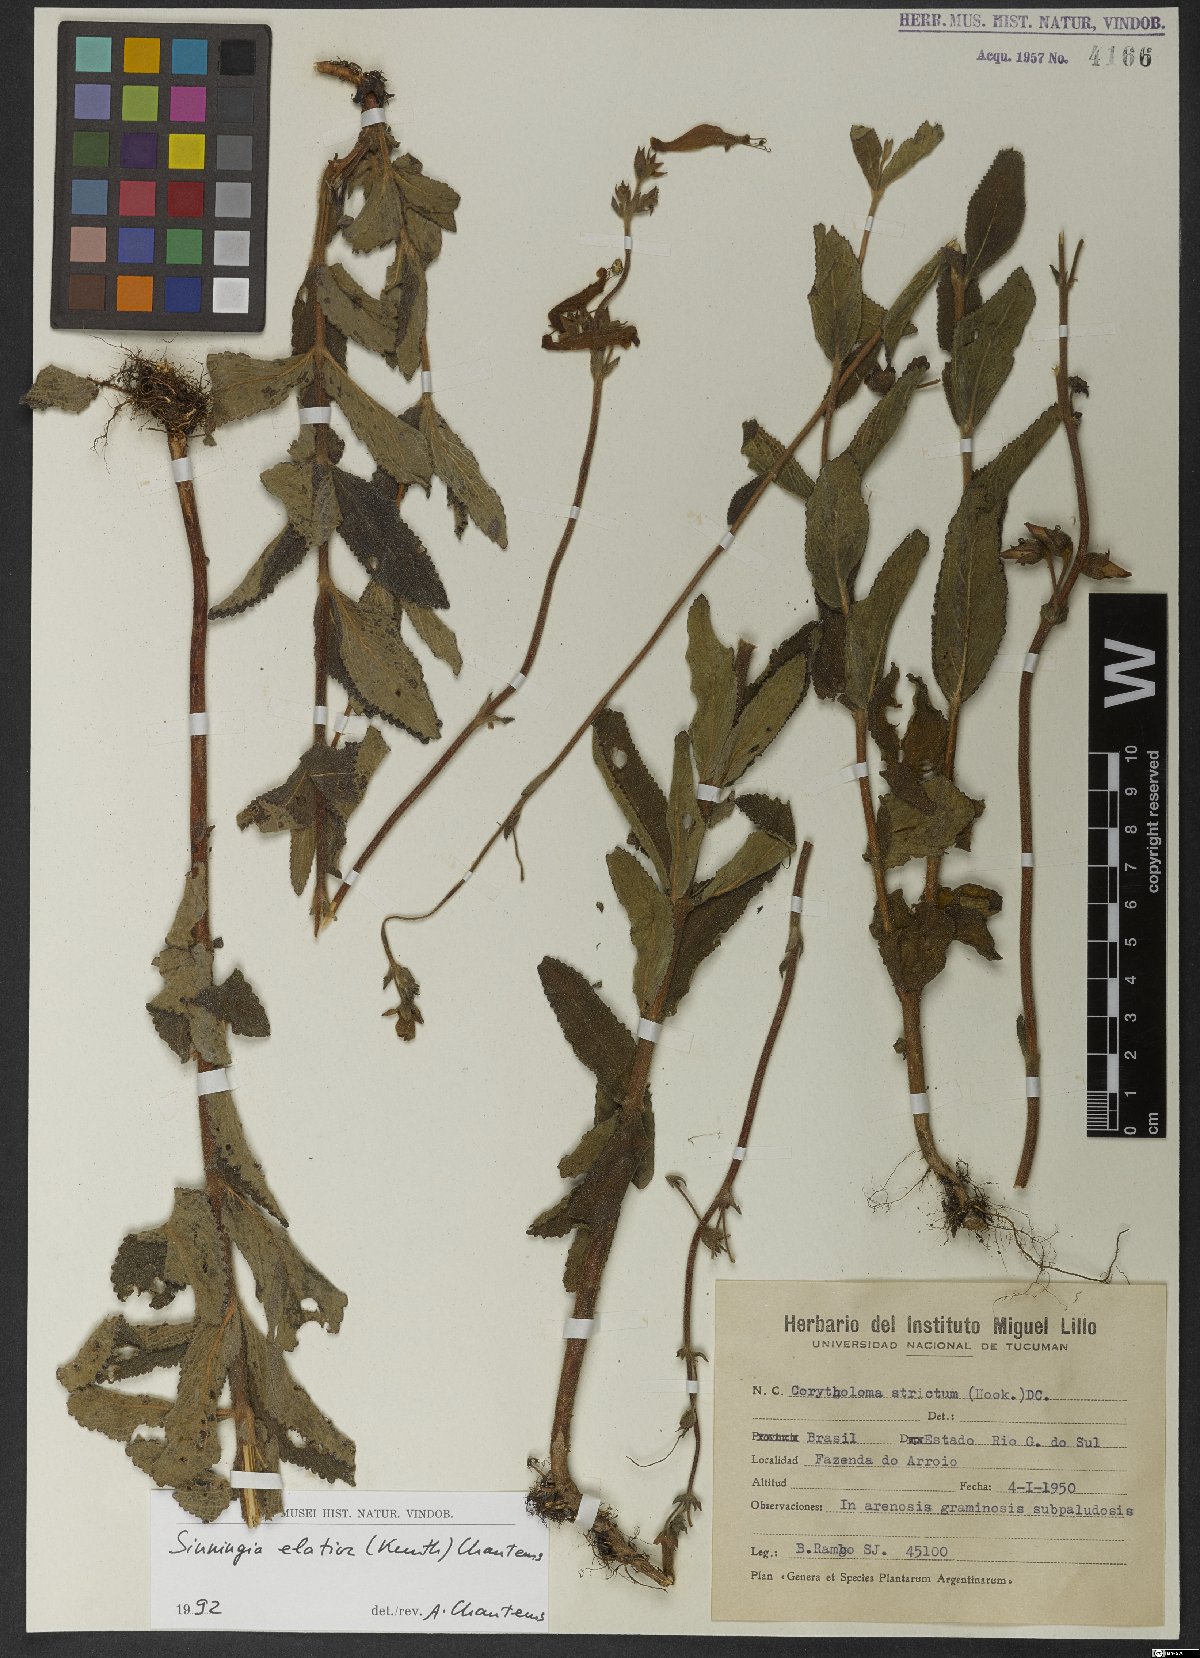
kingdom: Plantae
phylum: Tracheophyta
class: Magnoliopsida
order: Lamiales
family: Gesneriaceae
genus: Sinningia
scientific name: Sinningia elatior
